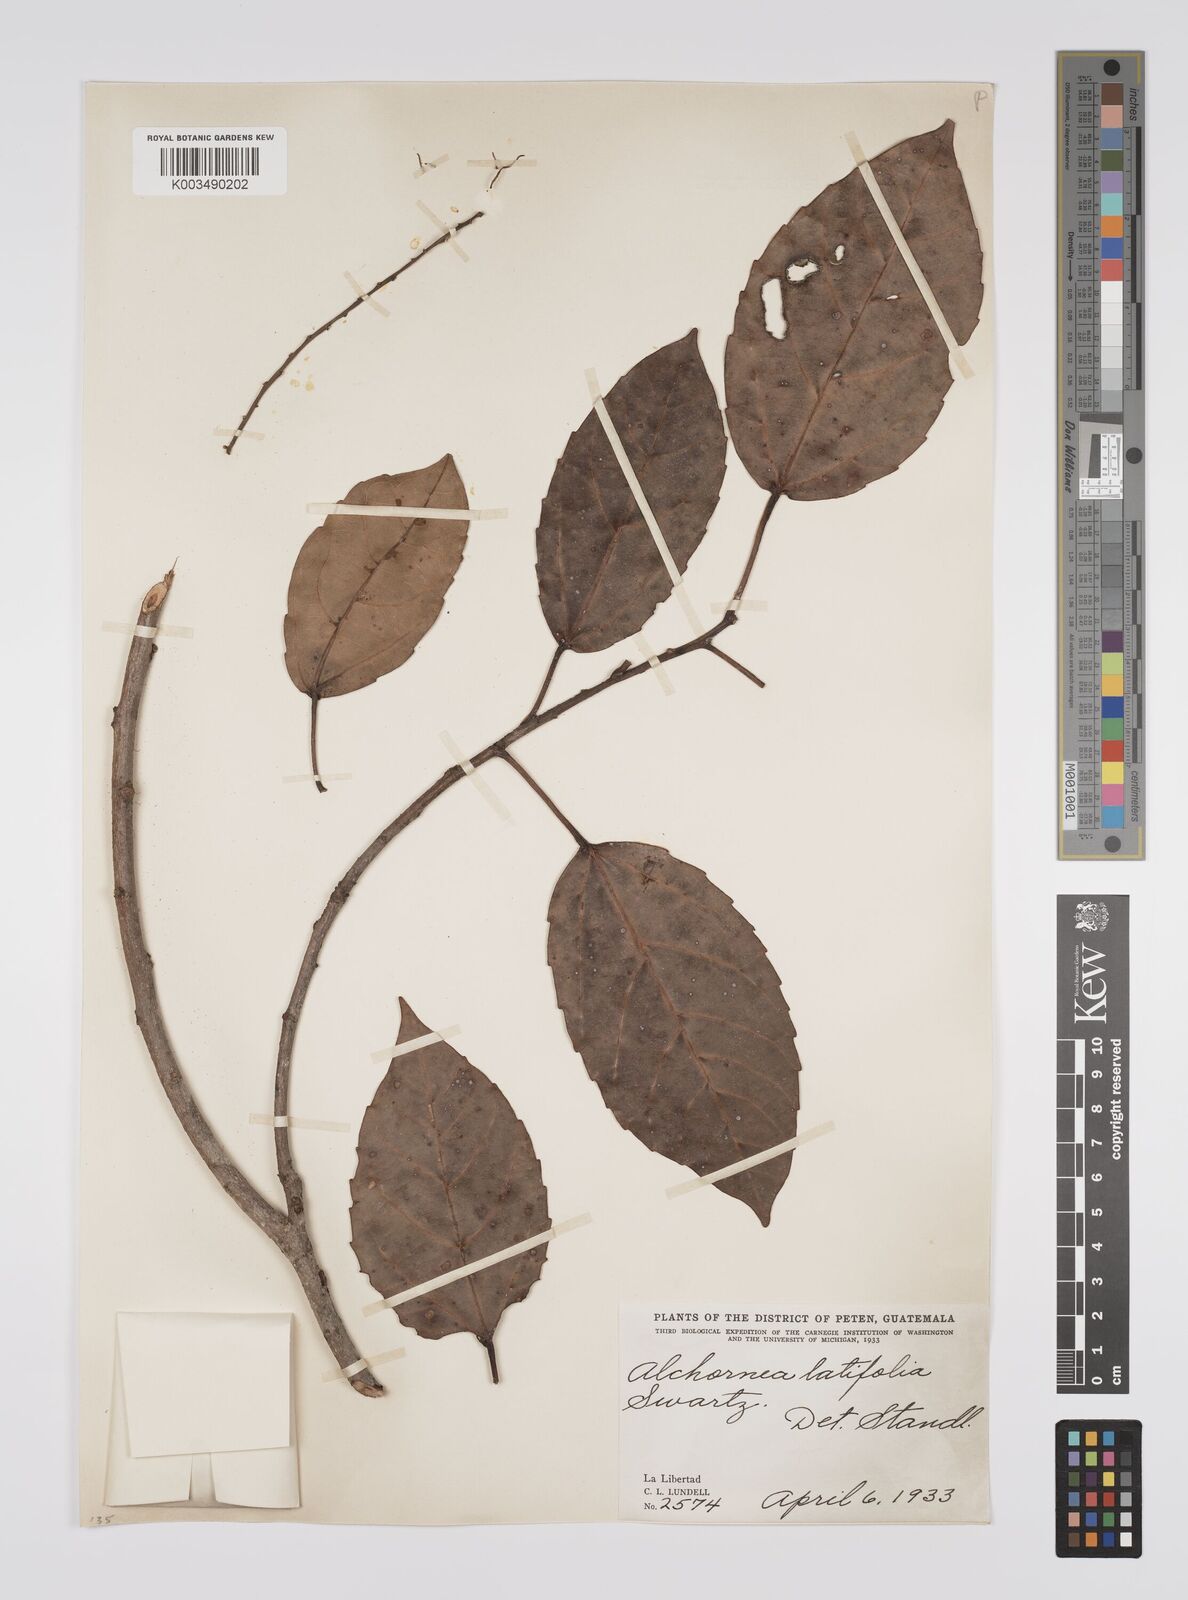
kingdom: Plantae
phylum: Tracheophyta
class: Magnoliopsida
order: Malpighiales
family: Euphorbiaceae
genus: Alchornea
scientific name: Alchornea latifolia
